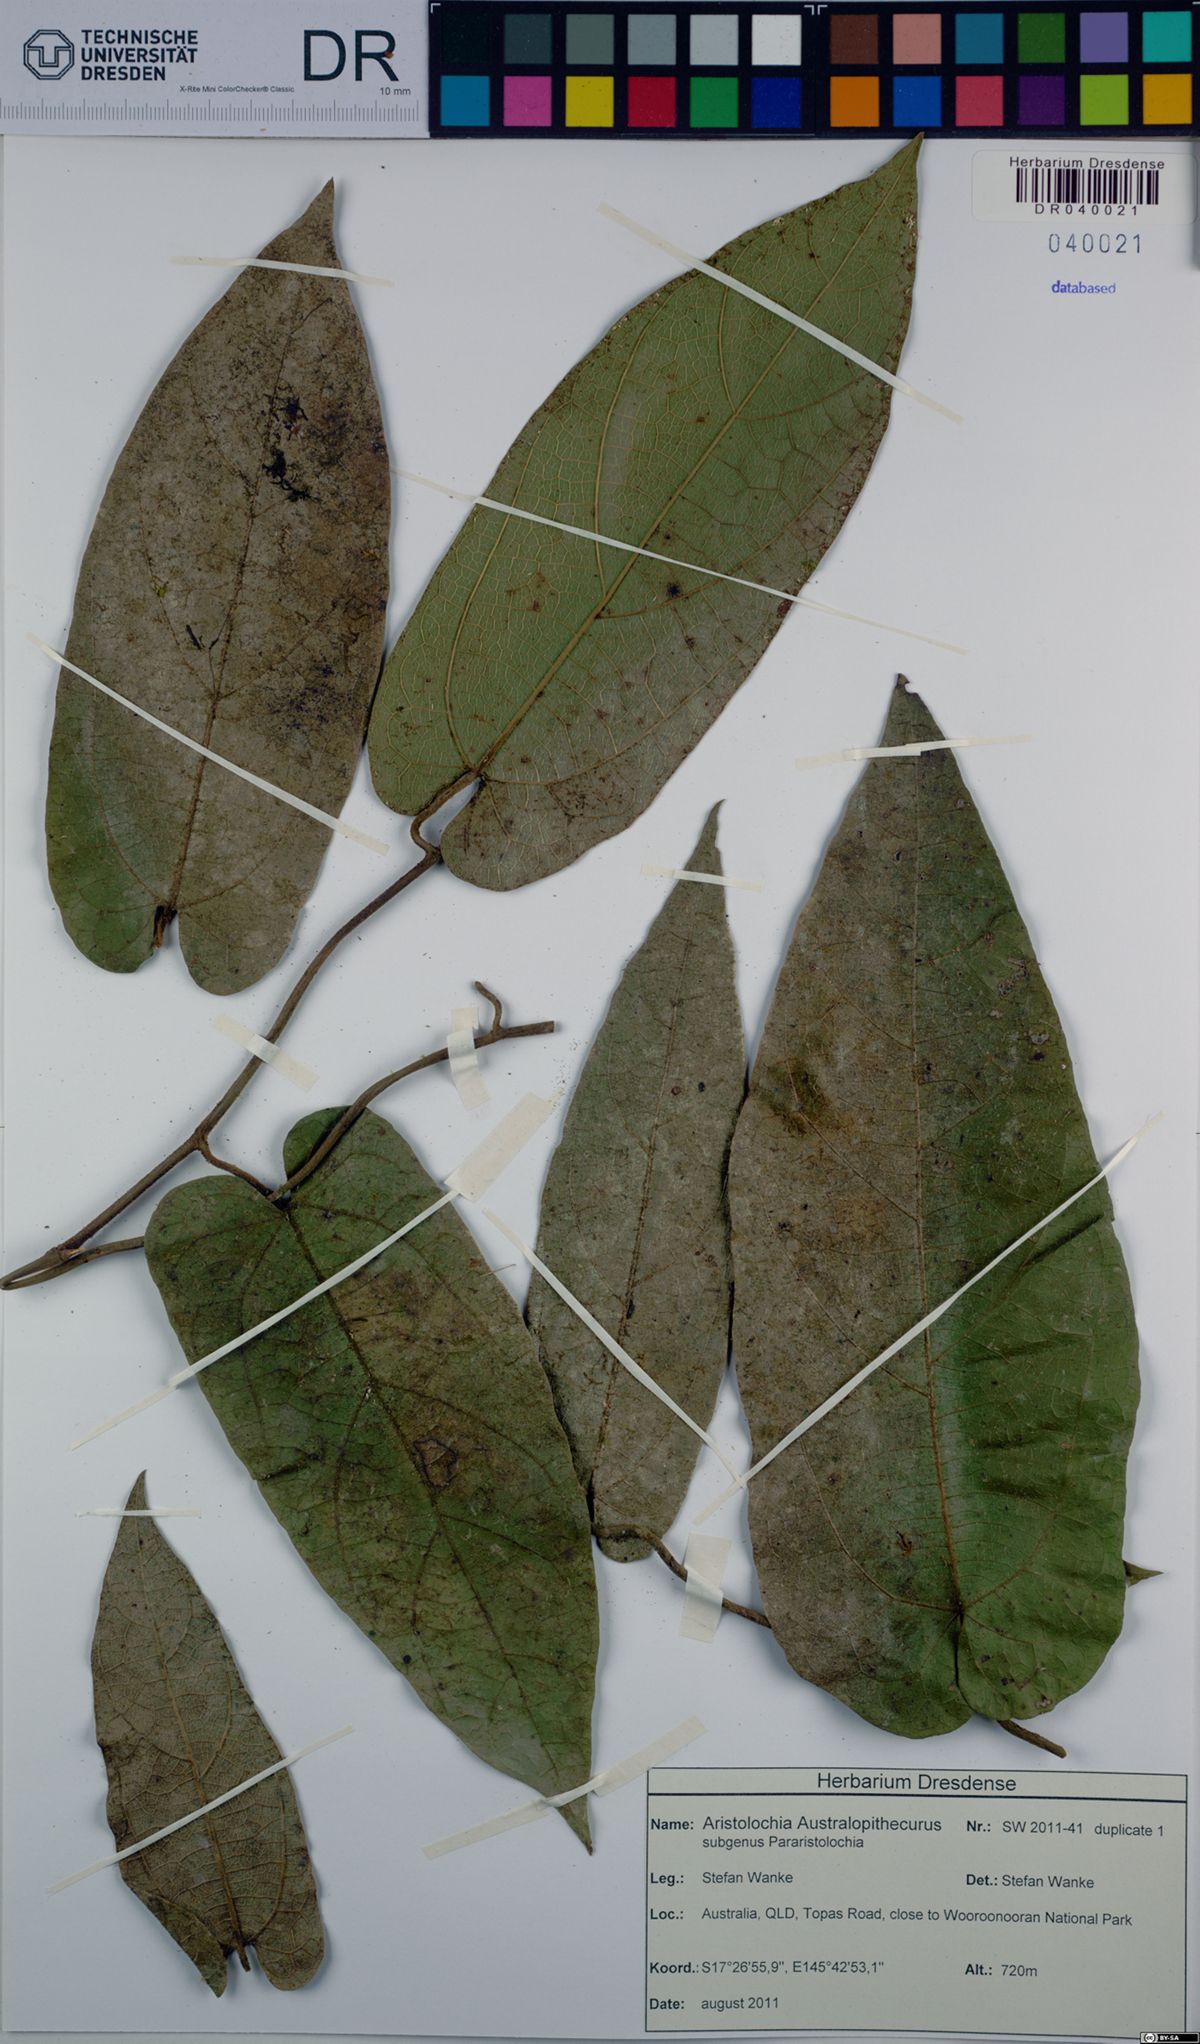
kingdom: Plantae
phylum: Tracheophyta
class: Magnoliopsida
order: Piperales
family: Aristolochiaceae
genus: Aristolochia
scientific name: Aristolochia australopithecurus
